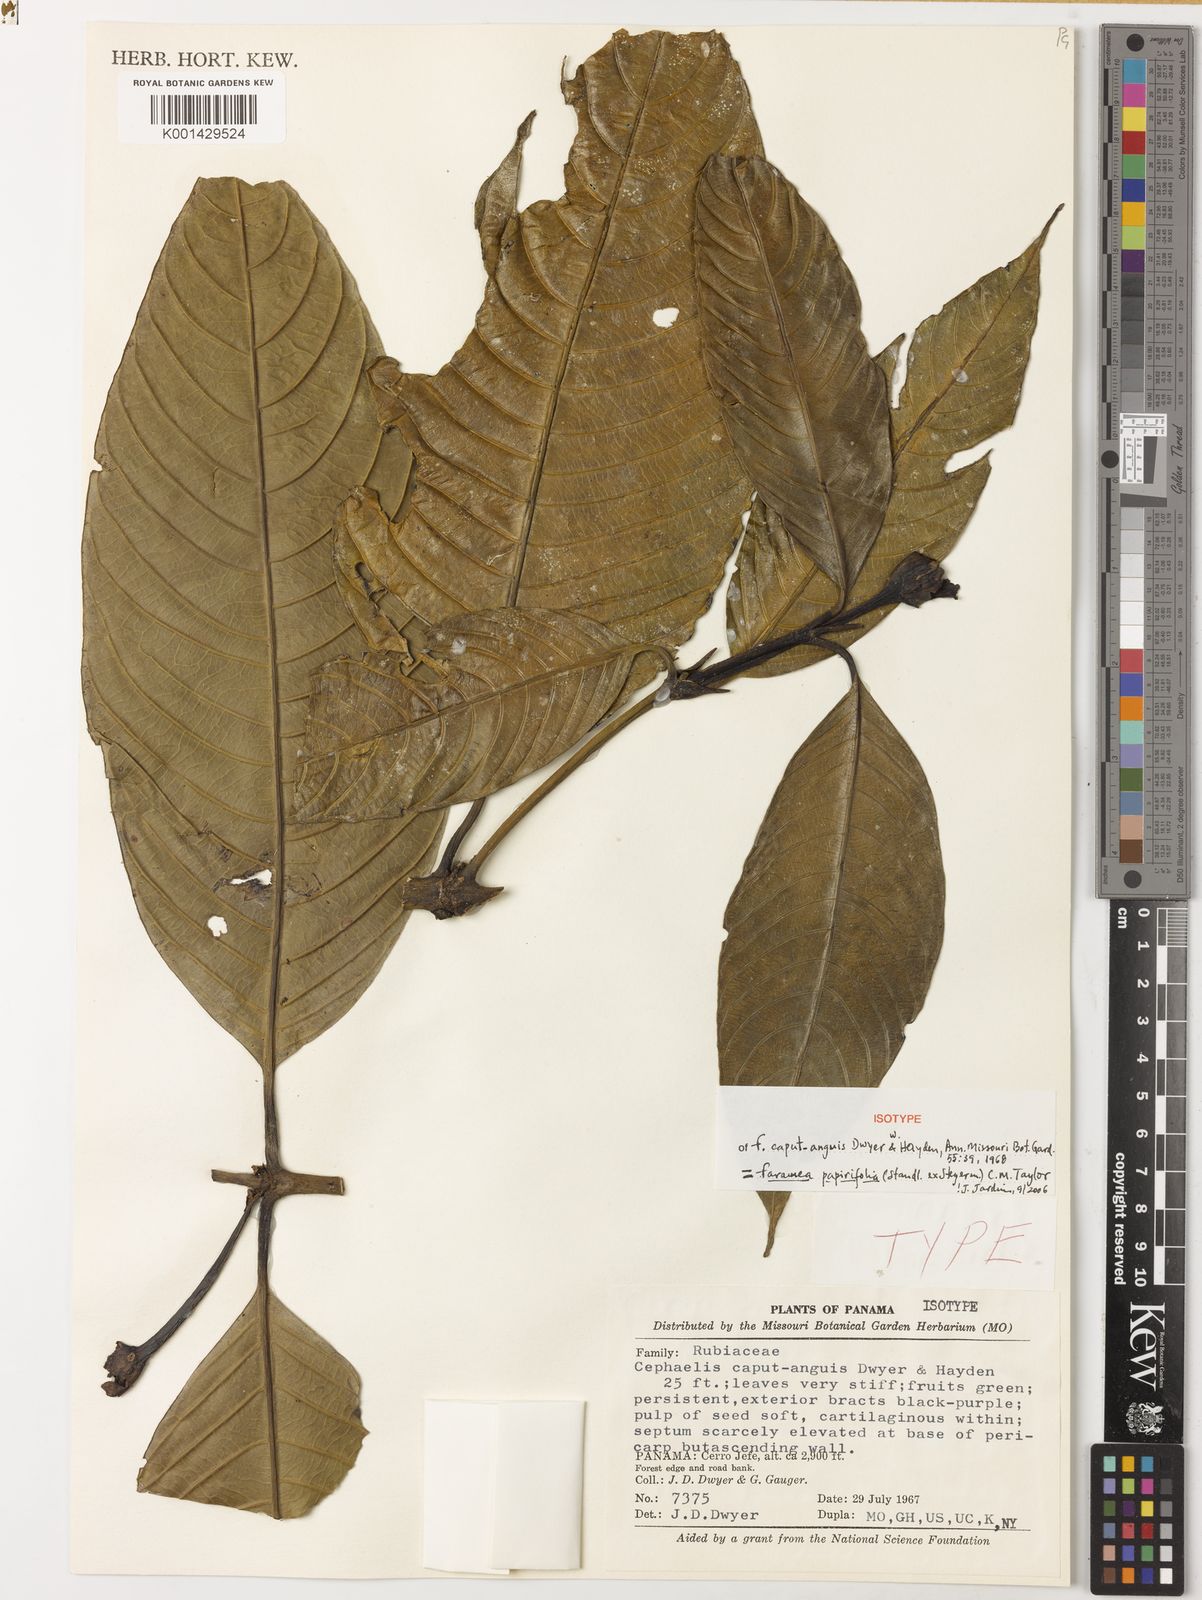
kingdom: Plantae
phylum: Tracheophyta
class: Magnoliopsida
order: Gentianales
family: Rubiaceae
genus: Faramea
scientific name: Faramea papirifolia
